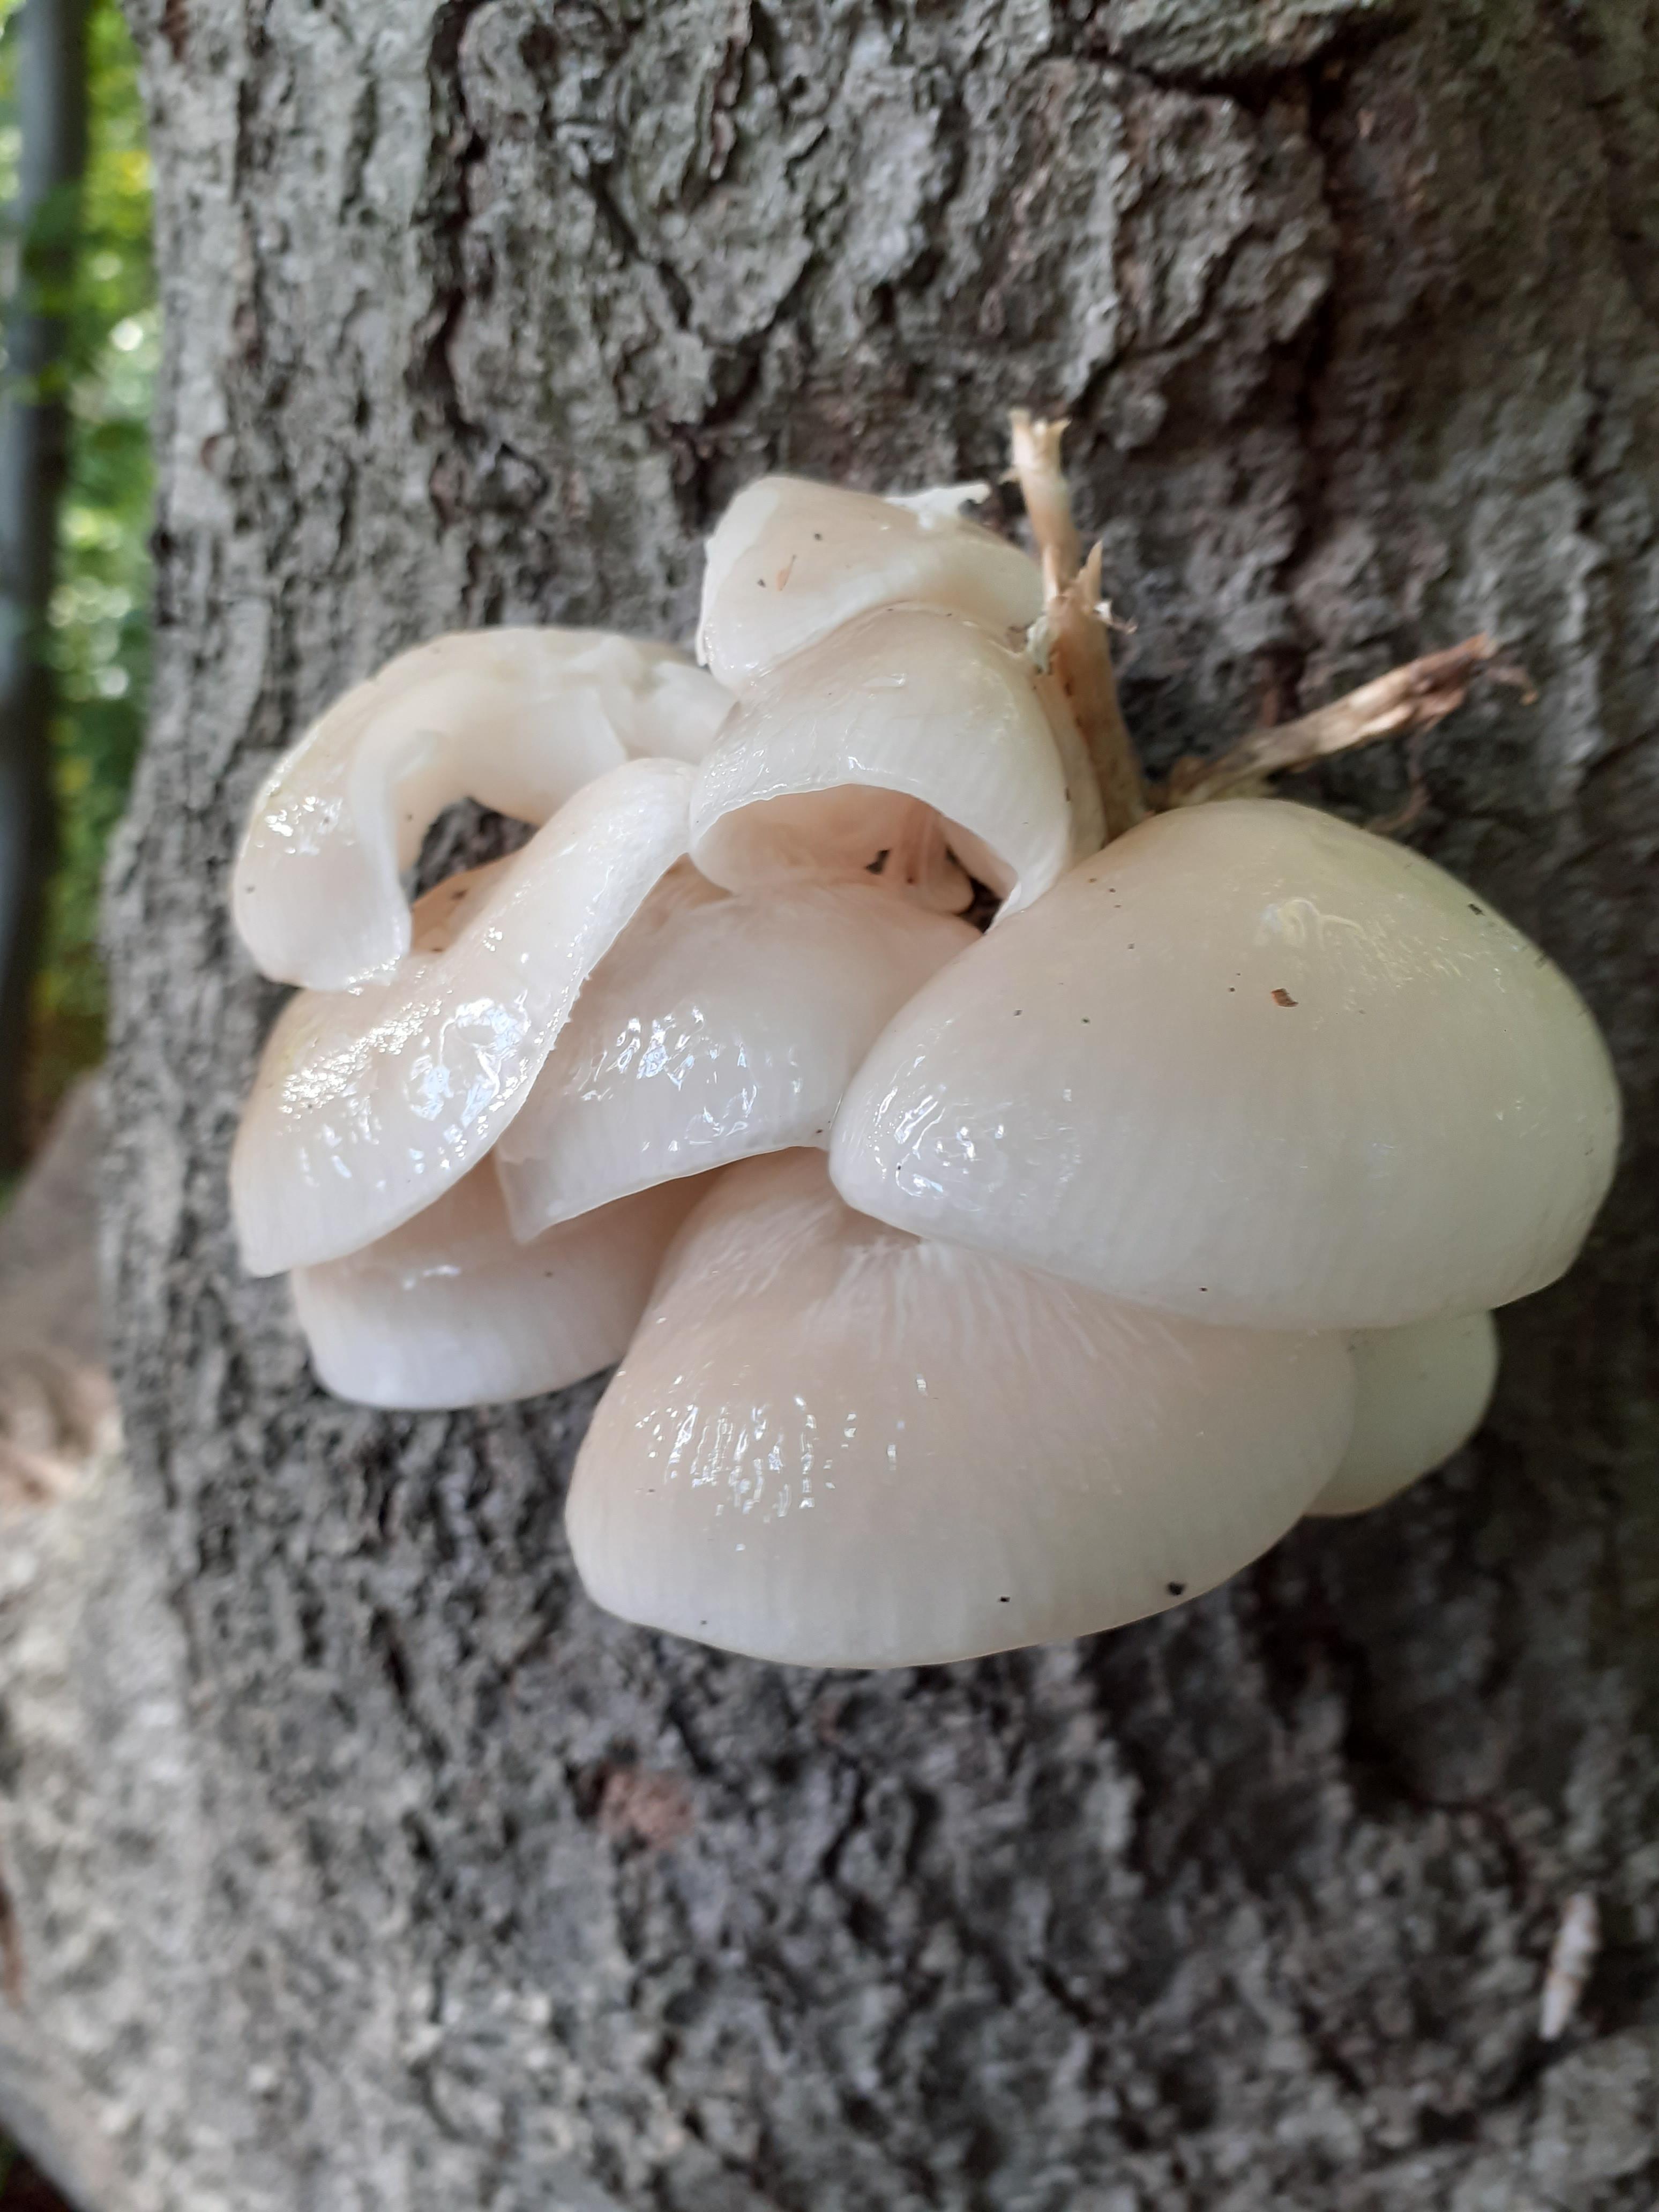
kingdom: Fungi
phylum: Basidiomycota
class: Agaricomycetes
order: Agaricales
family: Physalacriaceae
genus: Mucidula
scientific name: Mucidula mucida
